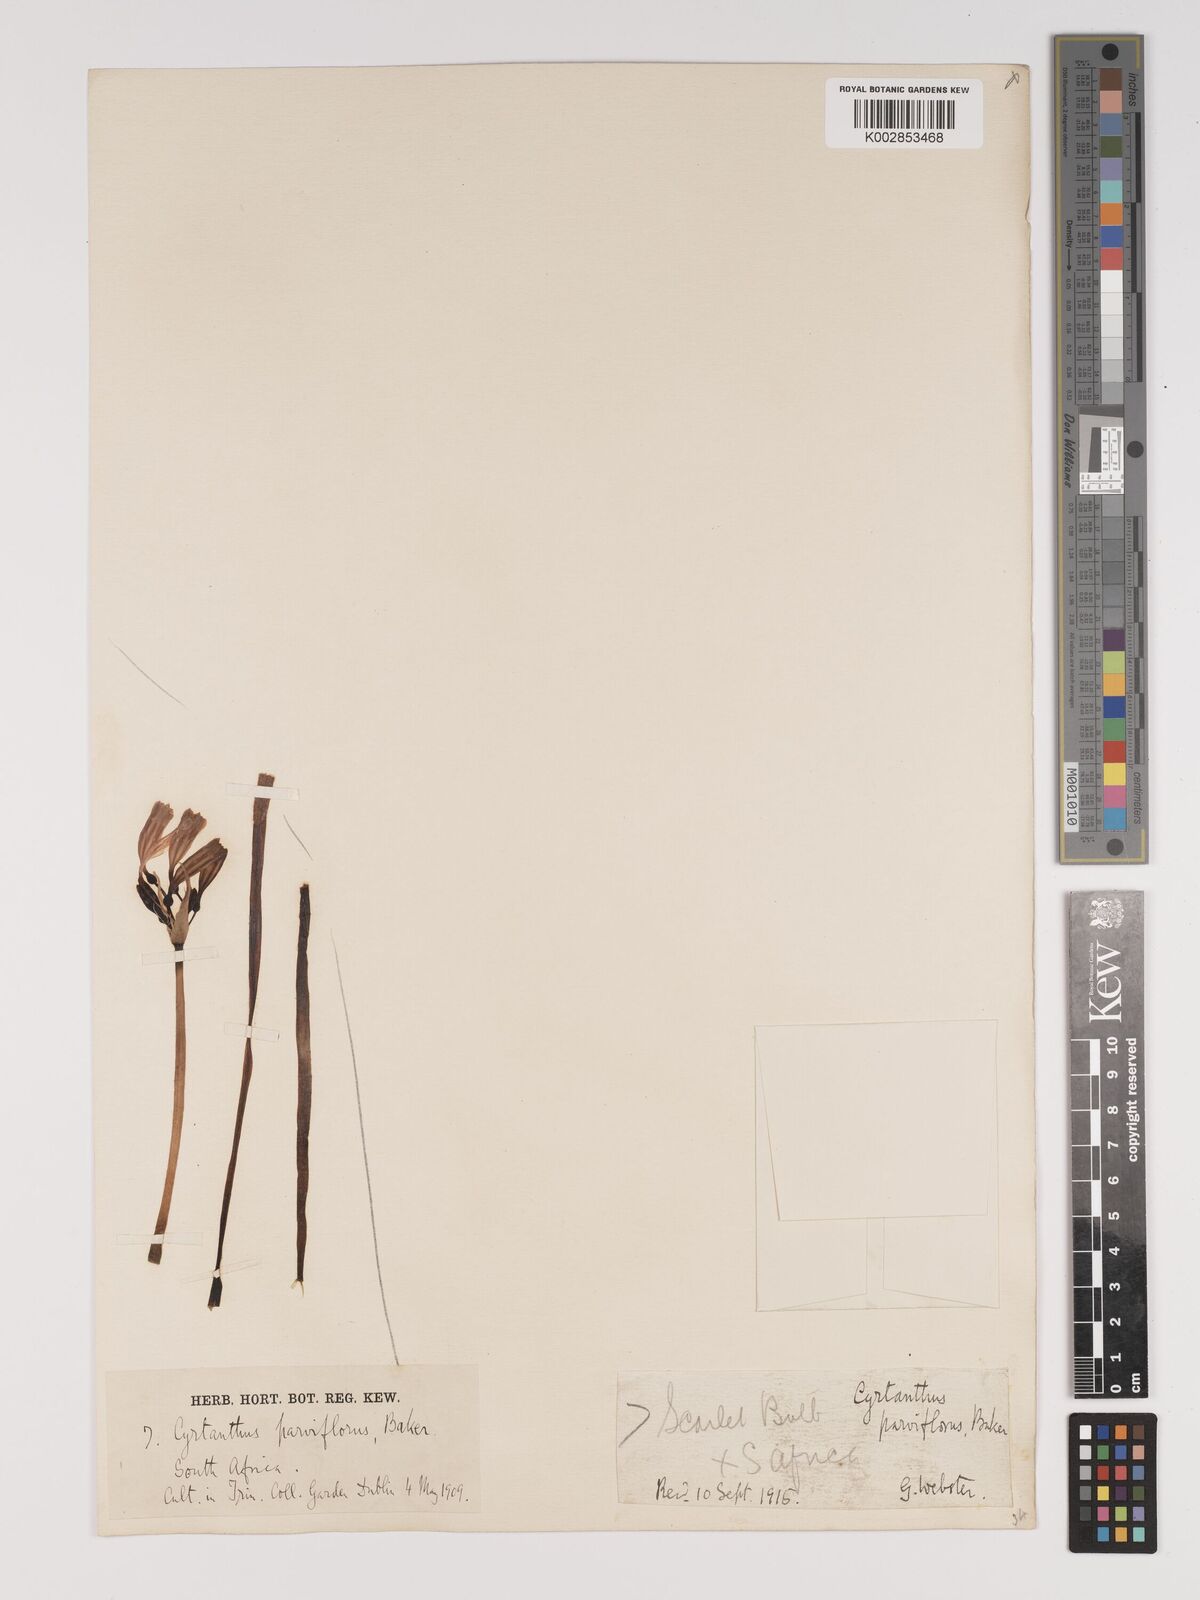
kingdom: Plantae
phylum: Tracheophyta
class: Liliopsida
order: Asparagales
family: Amaryllidaceae
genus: Cyrtanthus
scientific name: Cyrtanthus bicolor
